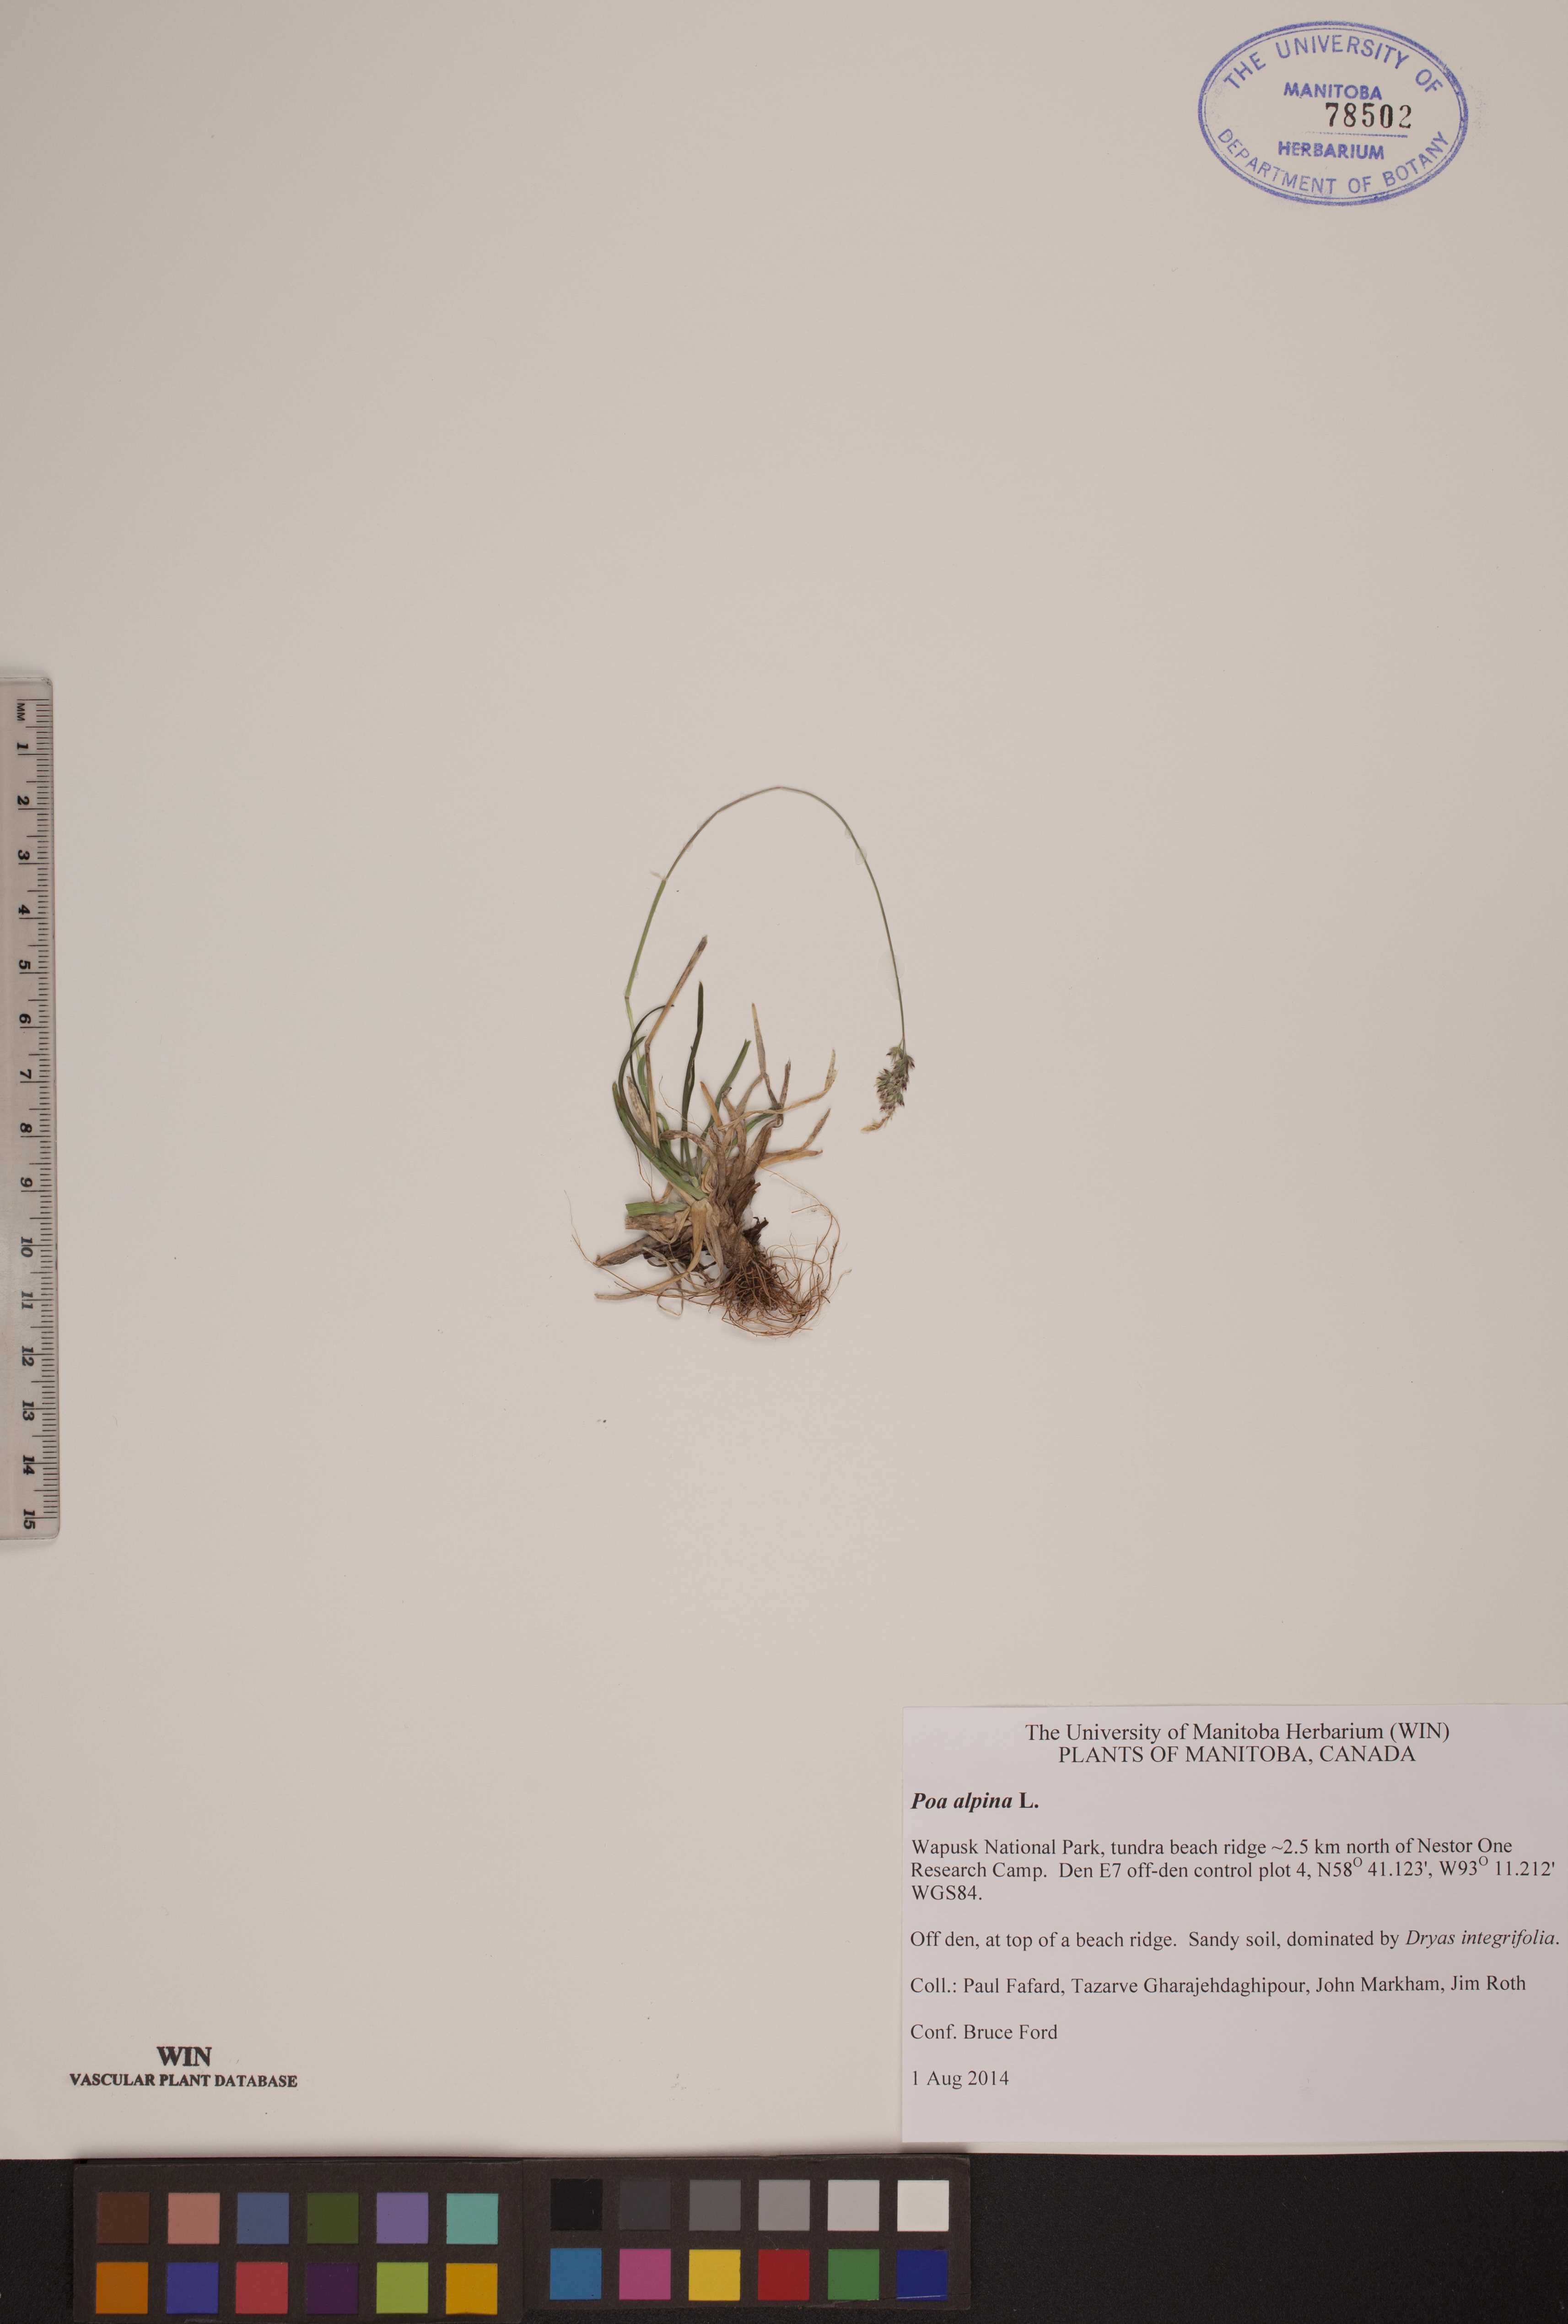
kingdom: Plantae
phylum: Tracheophyta
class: Liliopsida
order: Poales
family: Poaceae
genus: Poa
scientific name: Poa alpina
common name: Alpine bluegrass
